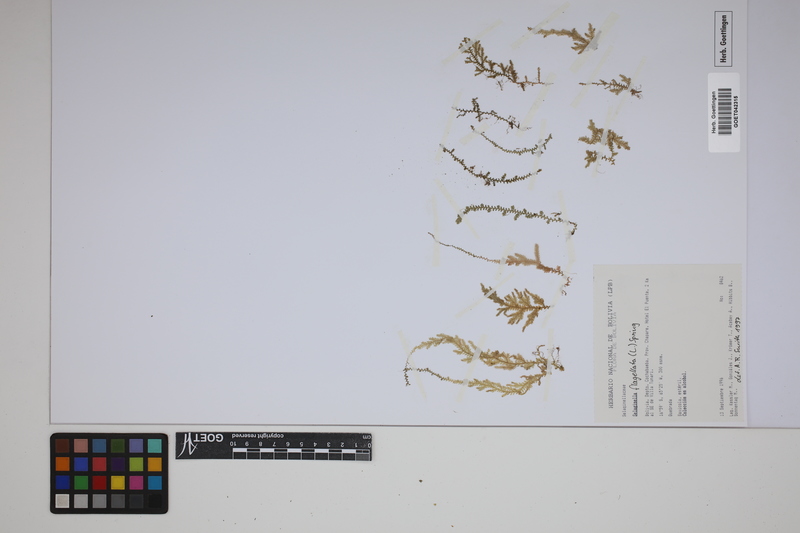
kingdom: Plantae
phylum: Tracheophyta
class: Lycopodiopsida
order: Selaginellales
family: Selaginellaceae
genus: Selaginella
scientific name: Selaginella flagellata
